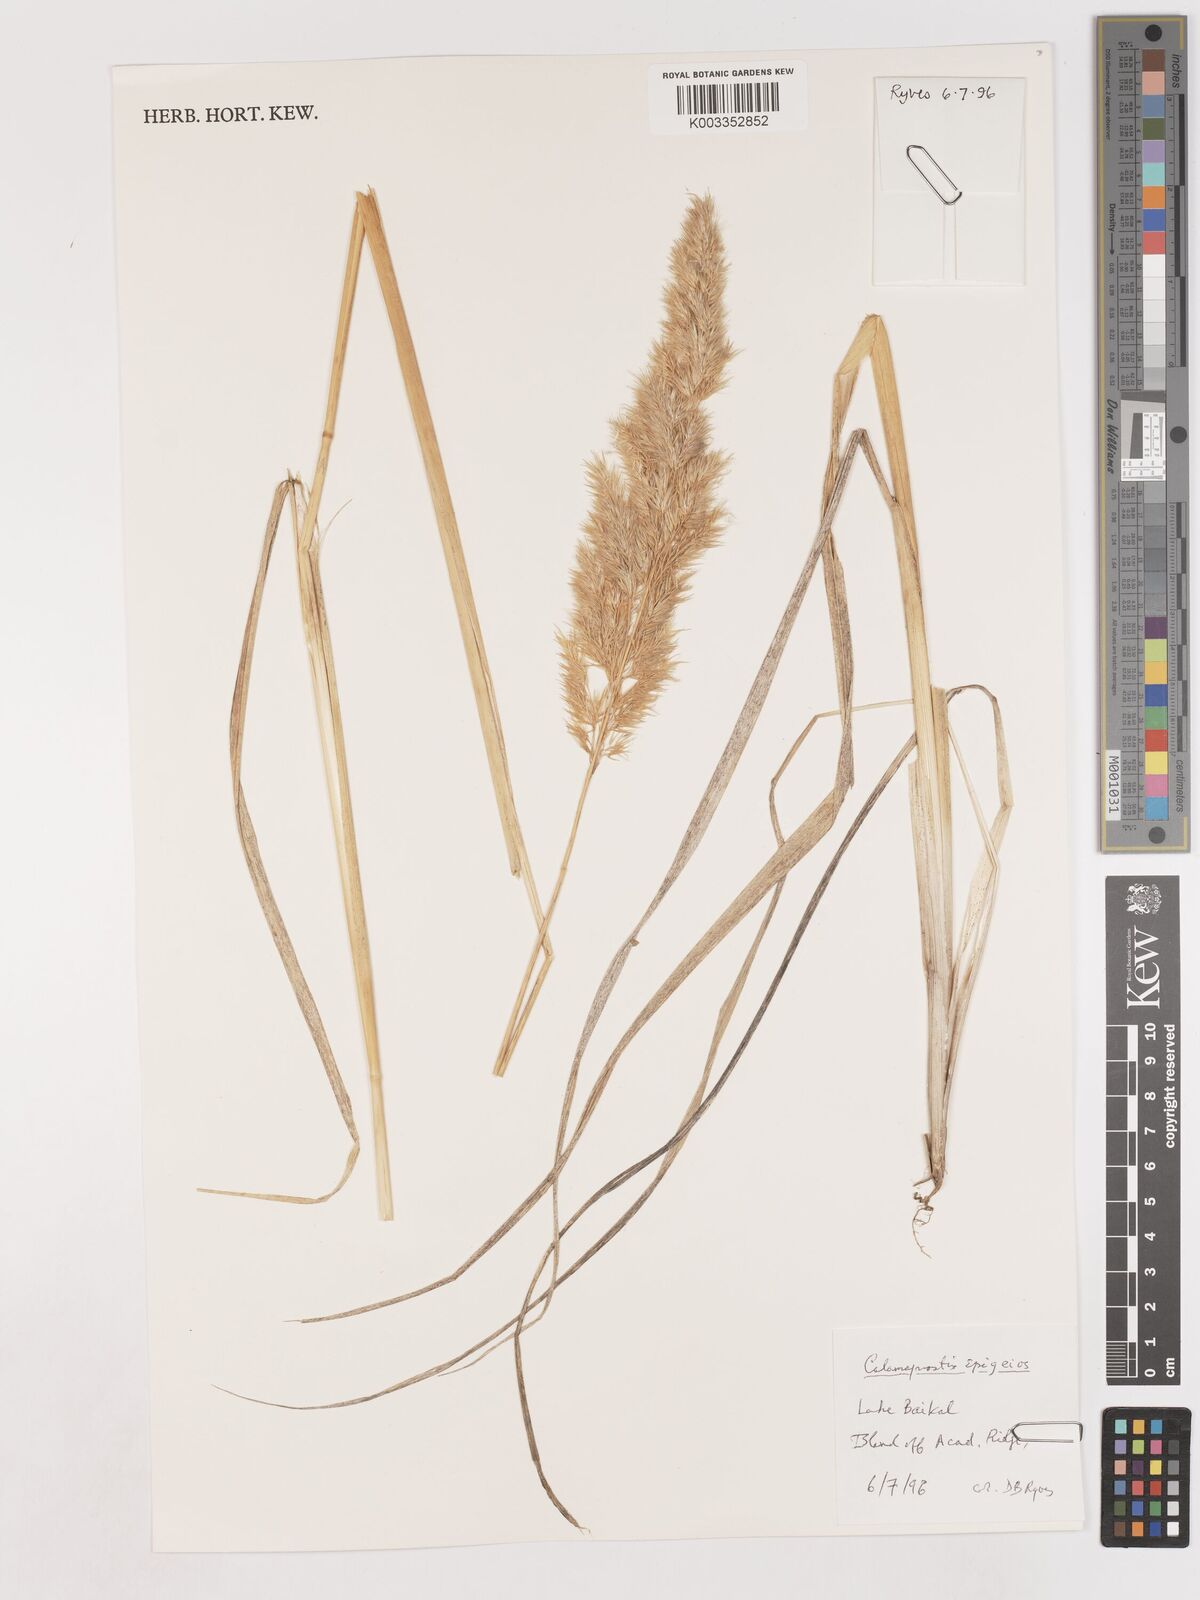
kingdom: Plantae
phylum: Tracheophyta
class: Liliopsida
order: Poales
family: Poaceae
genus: Calamagrostis
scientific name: Calamagrostis epigejos
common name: Wood small-reed
